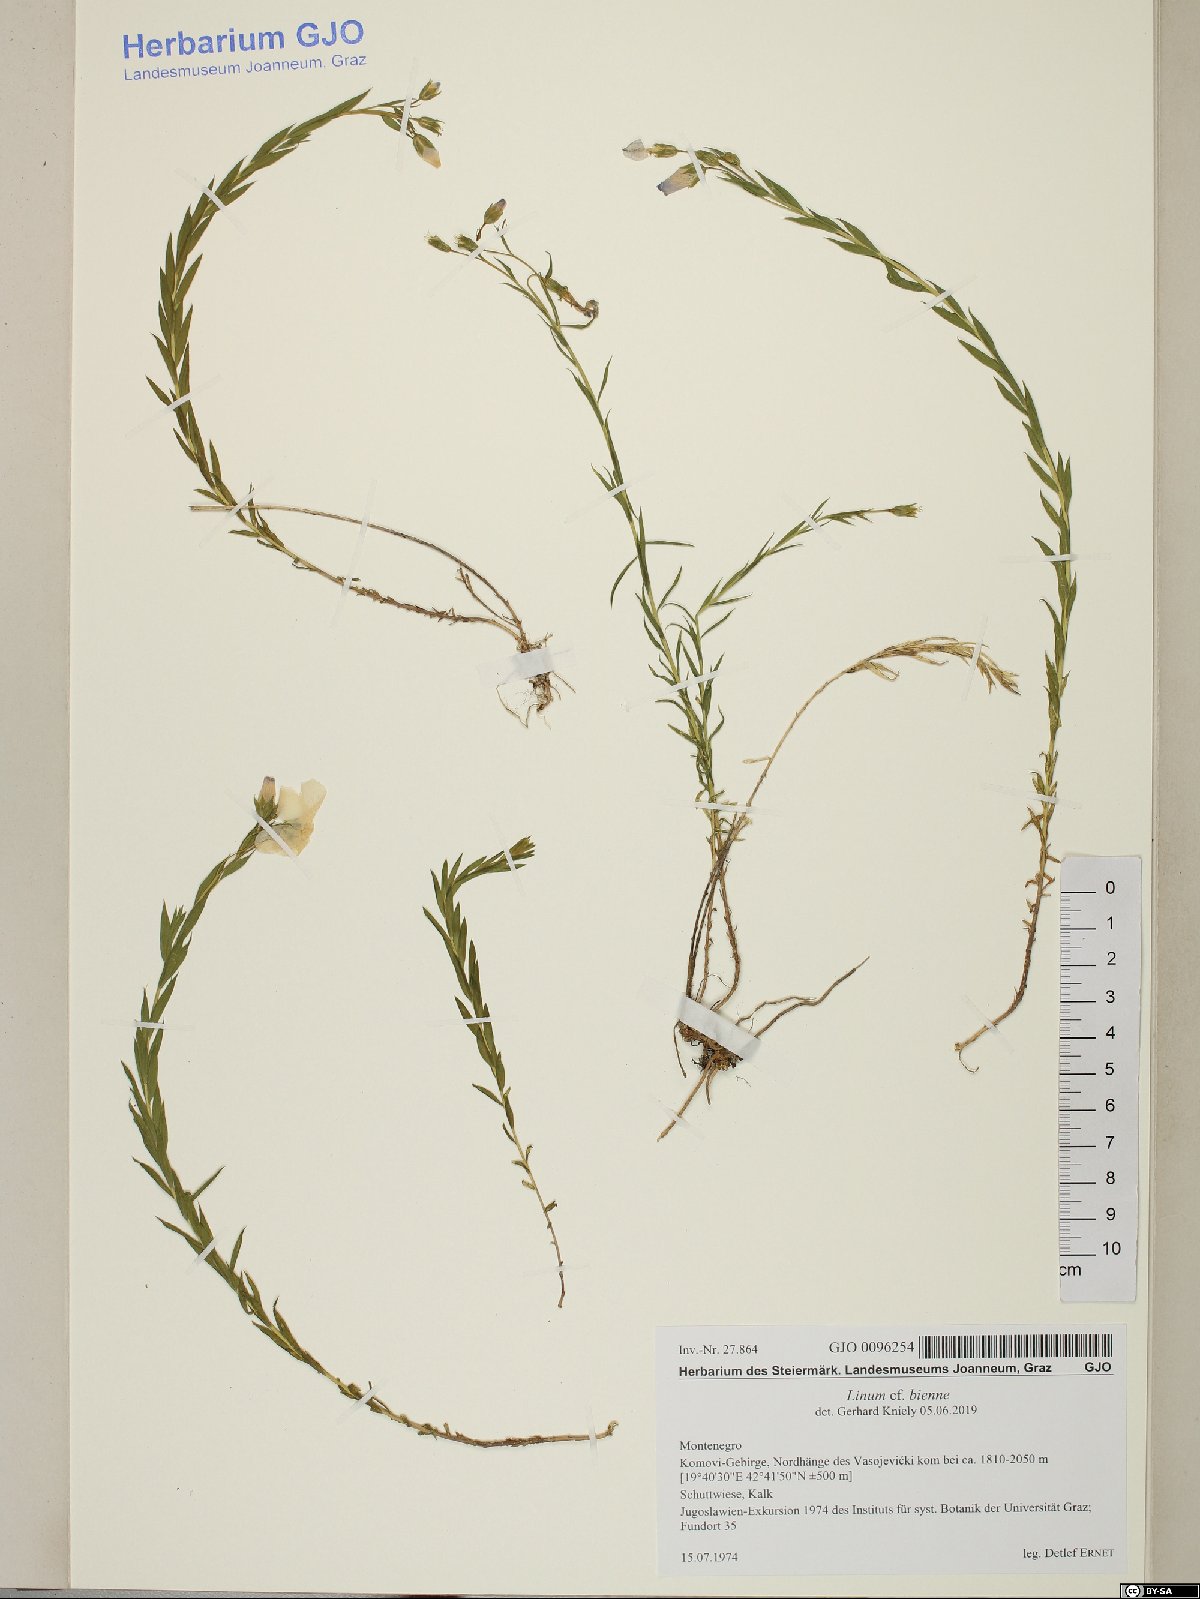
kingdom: Plantae
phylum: Tracheophyta
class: Magnoliopsida
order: Malpighiales
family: Linaceae
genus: Linum
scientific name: Linum bienne
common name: Pale flax
